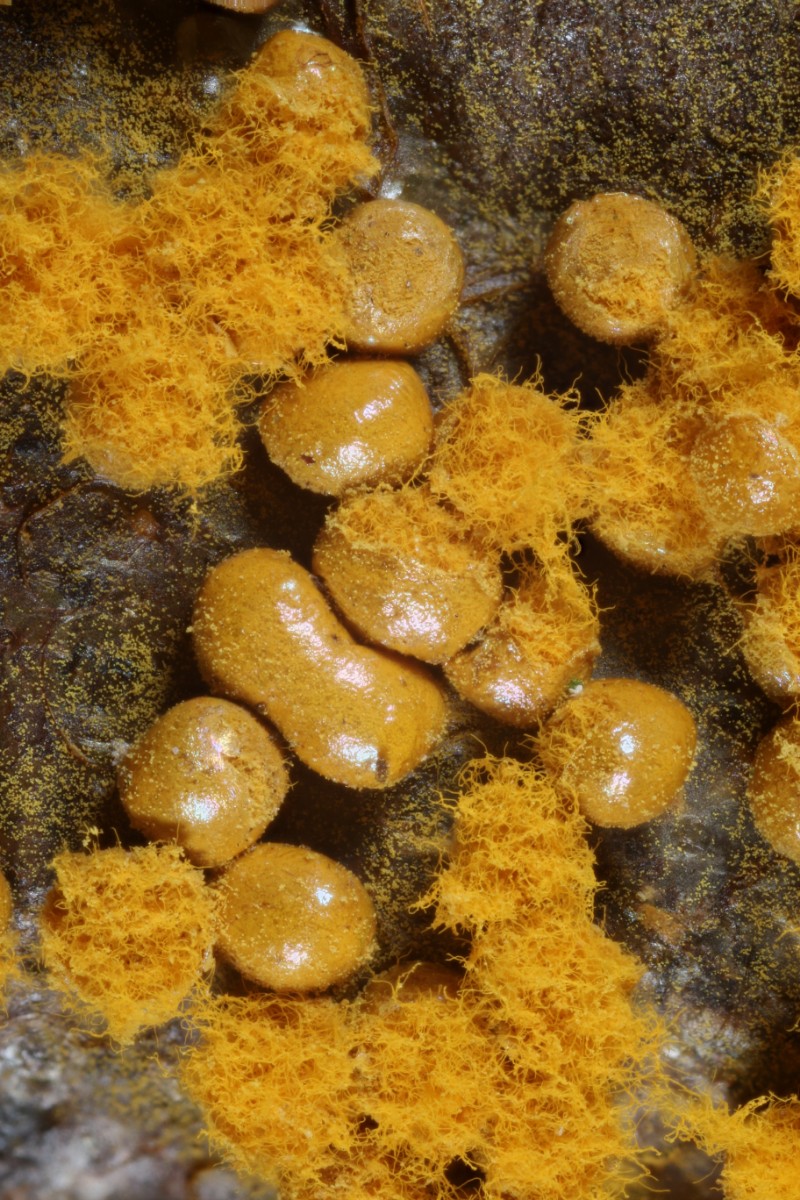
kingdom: Protozoa
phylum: Mycetozoa
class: Myxomycetes
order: Trichiales
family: Trichiaceae
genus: Trichia
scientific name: Trichia scabra
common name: tæppe-hårbold
